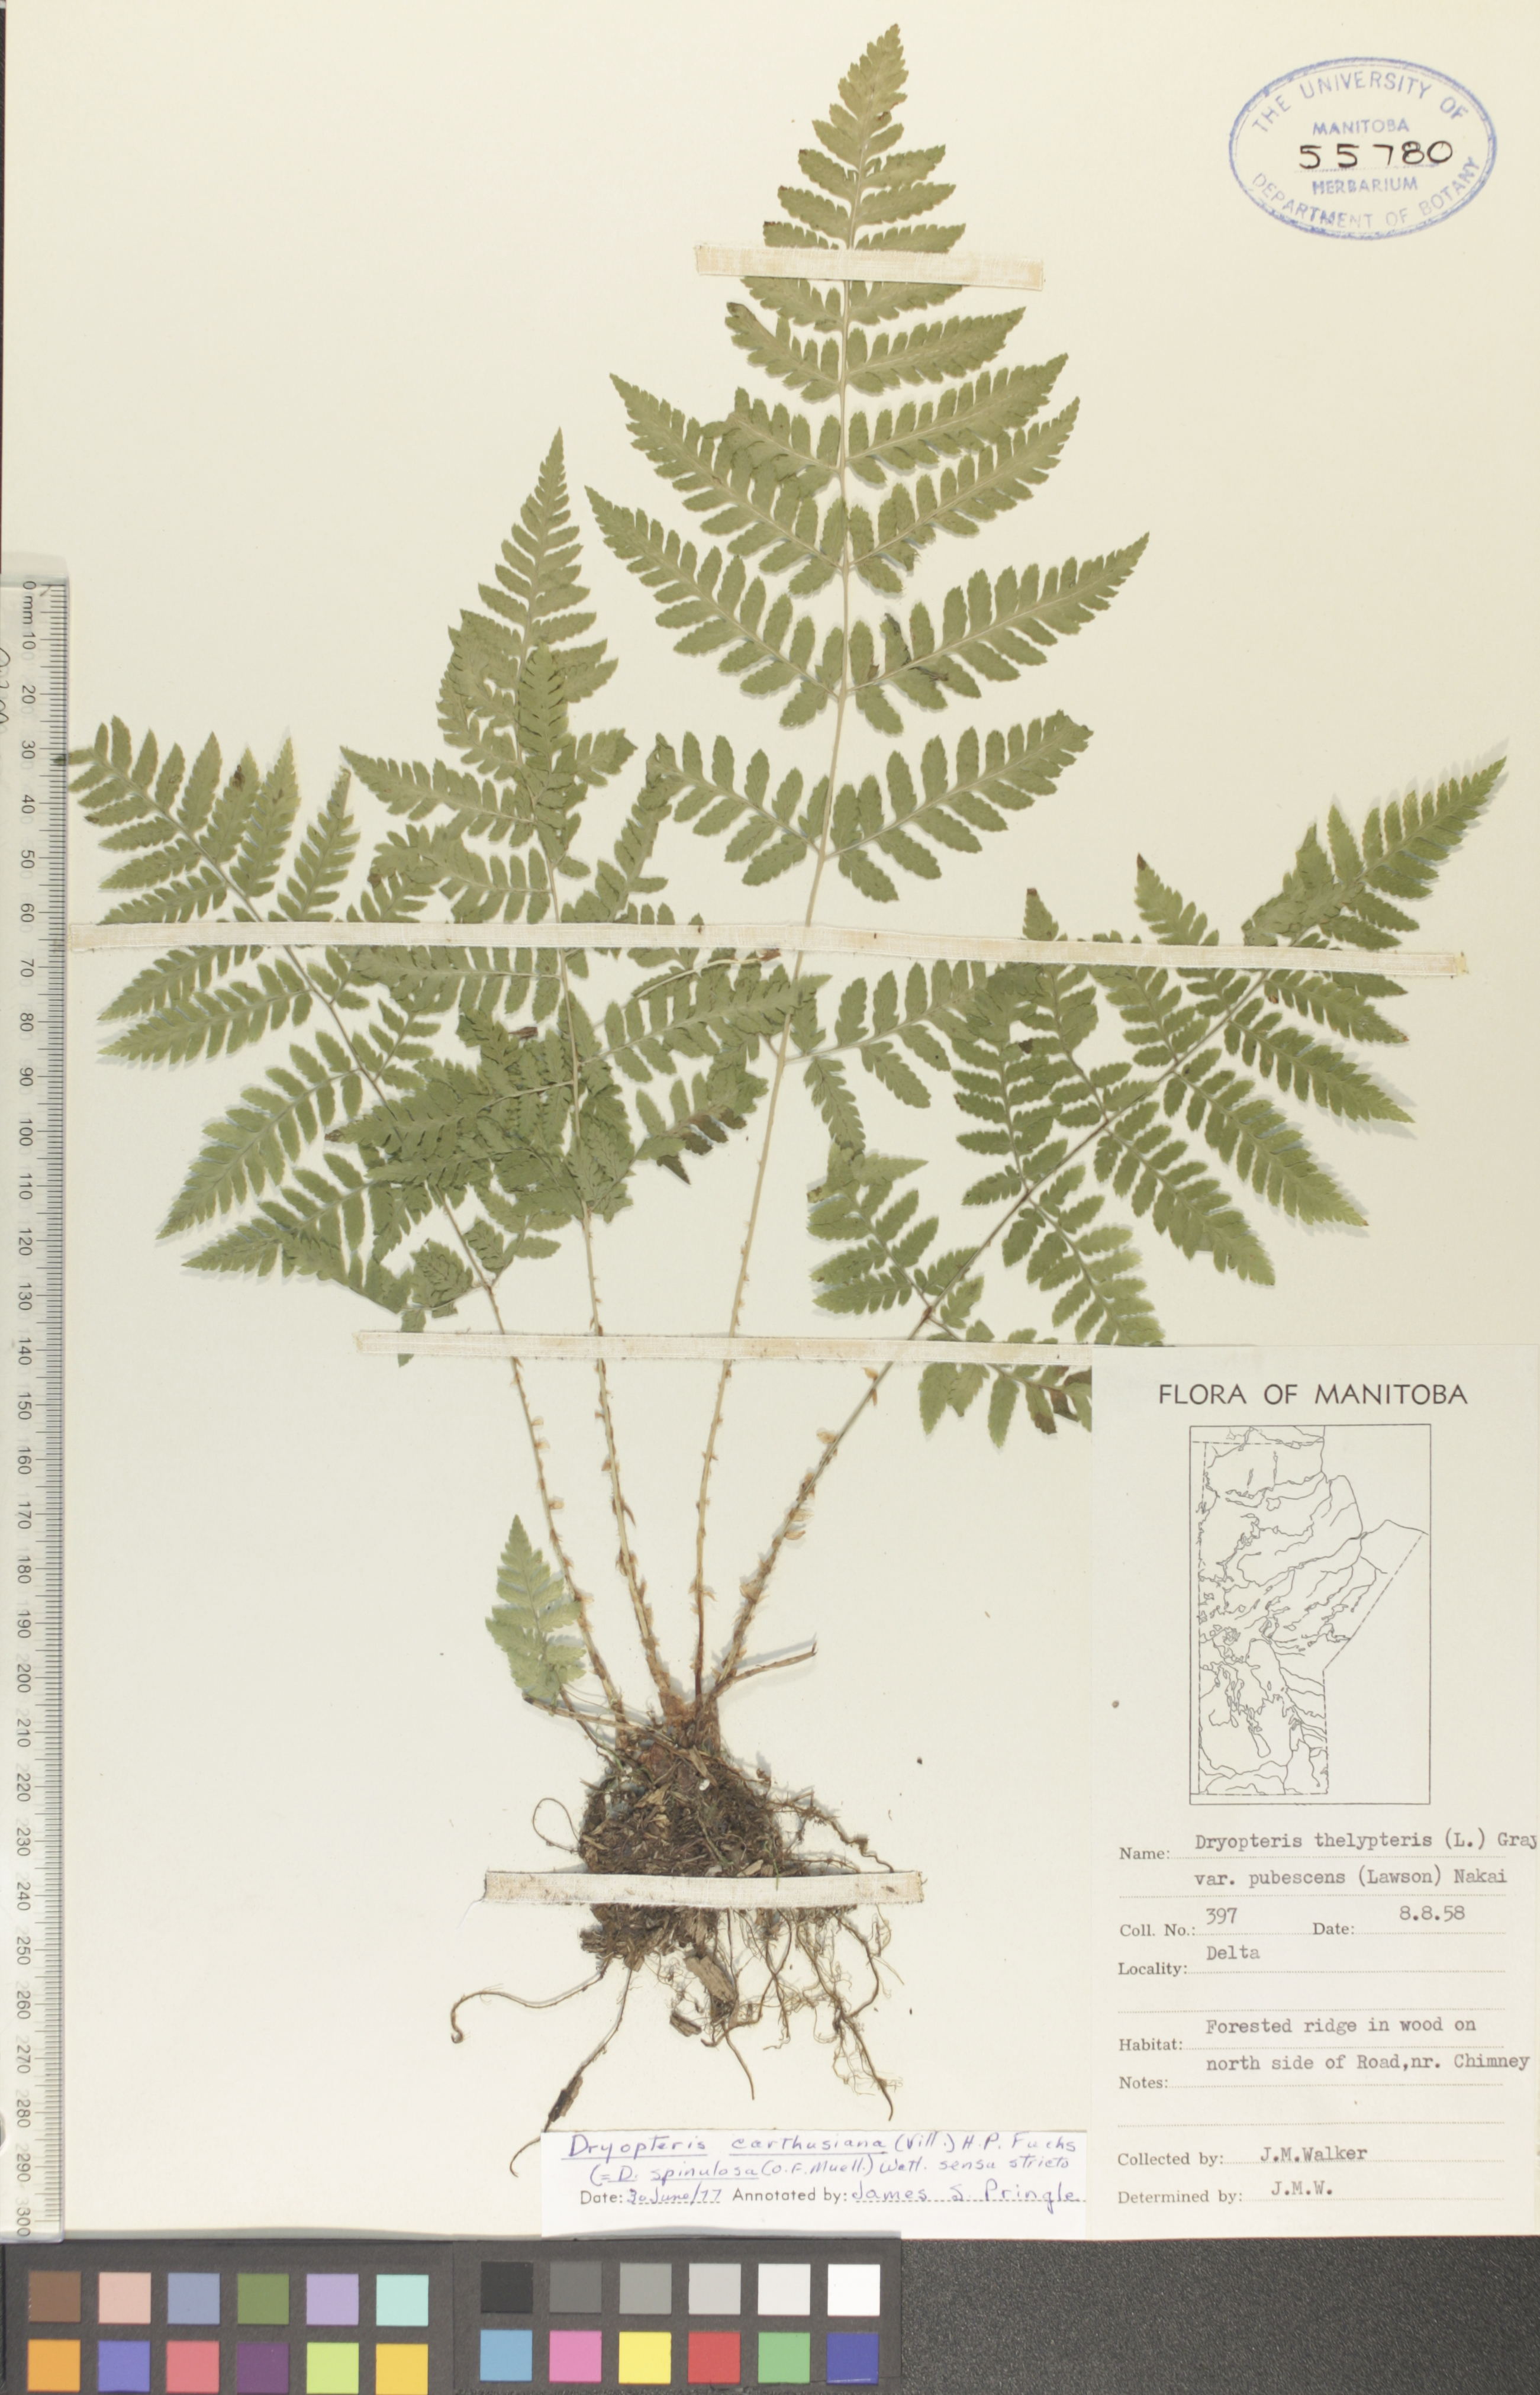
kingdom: Plantae
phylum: Tracheophyta
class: Polypodiopsida
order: Polypodiales
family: Dryopteridaceae
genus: Dryopteris
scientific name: Dryopteris carthusiana
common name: Narrow buckler-fern
